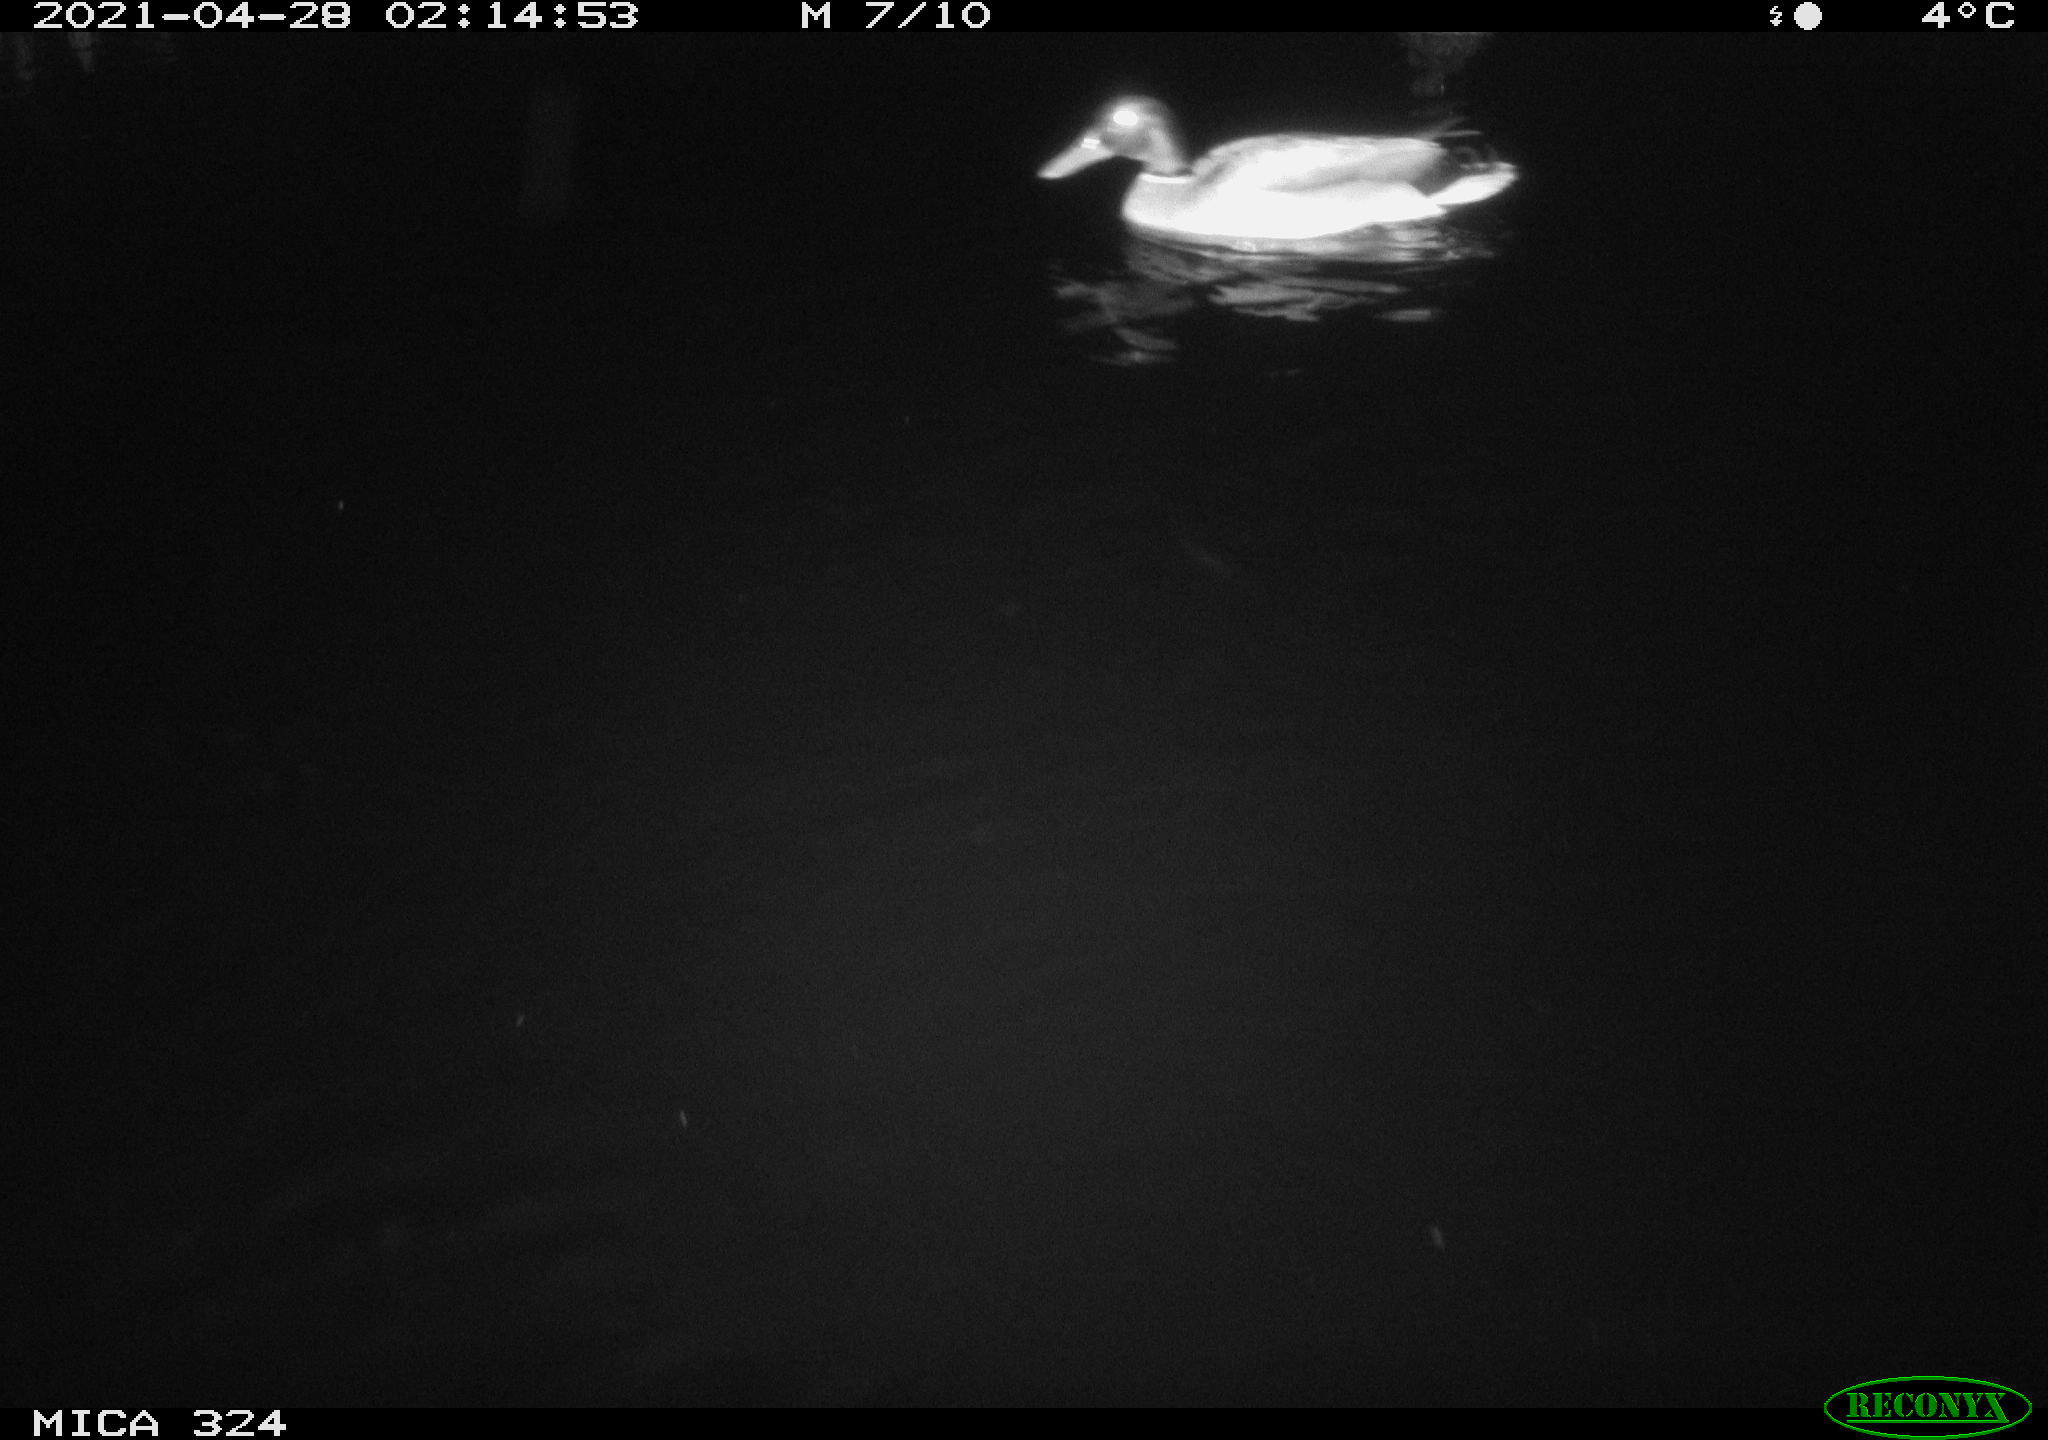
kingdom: Animalia
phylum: Chordata
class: Aves
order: Anseriformes
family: Anatidae
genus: Anas
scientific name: Anas platyrhynchos
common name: Mallard
